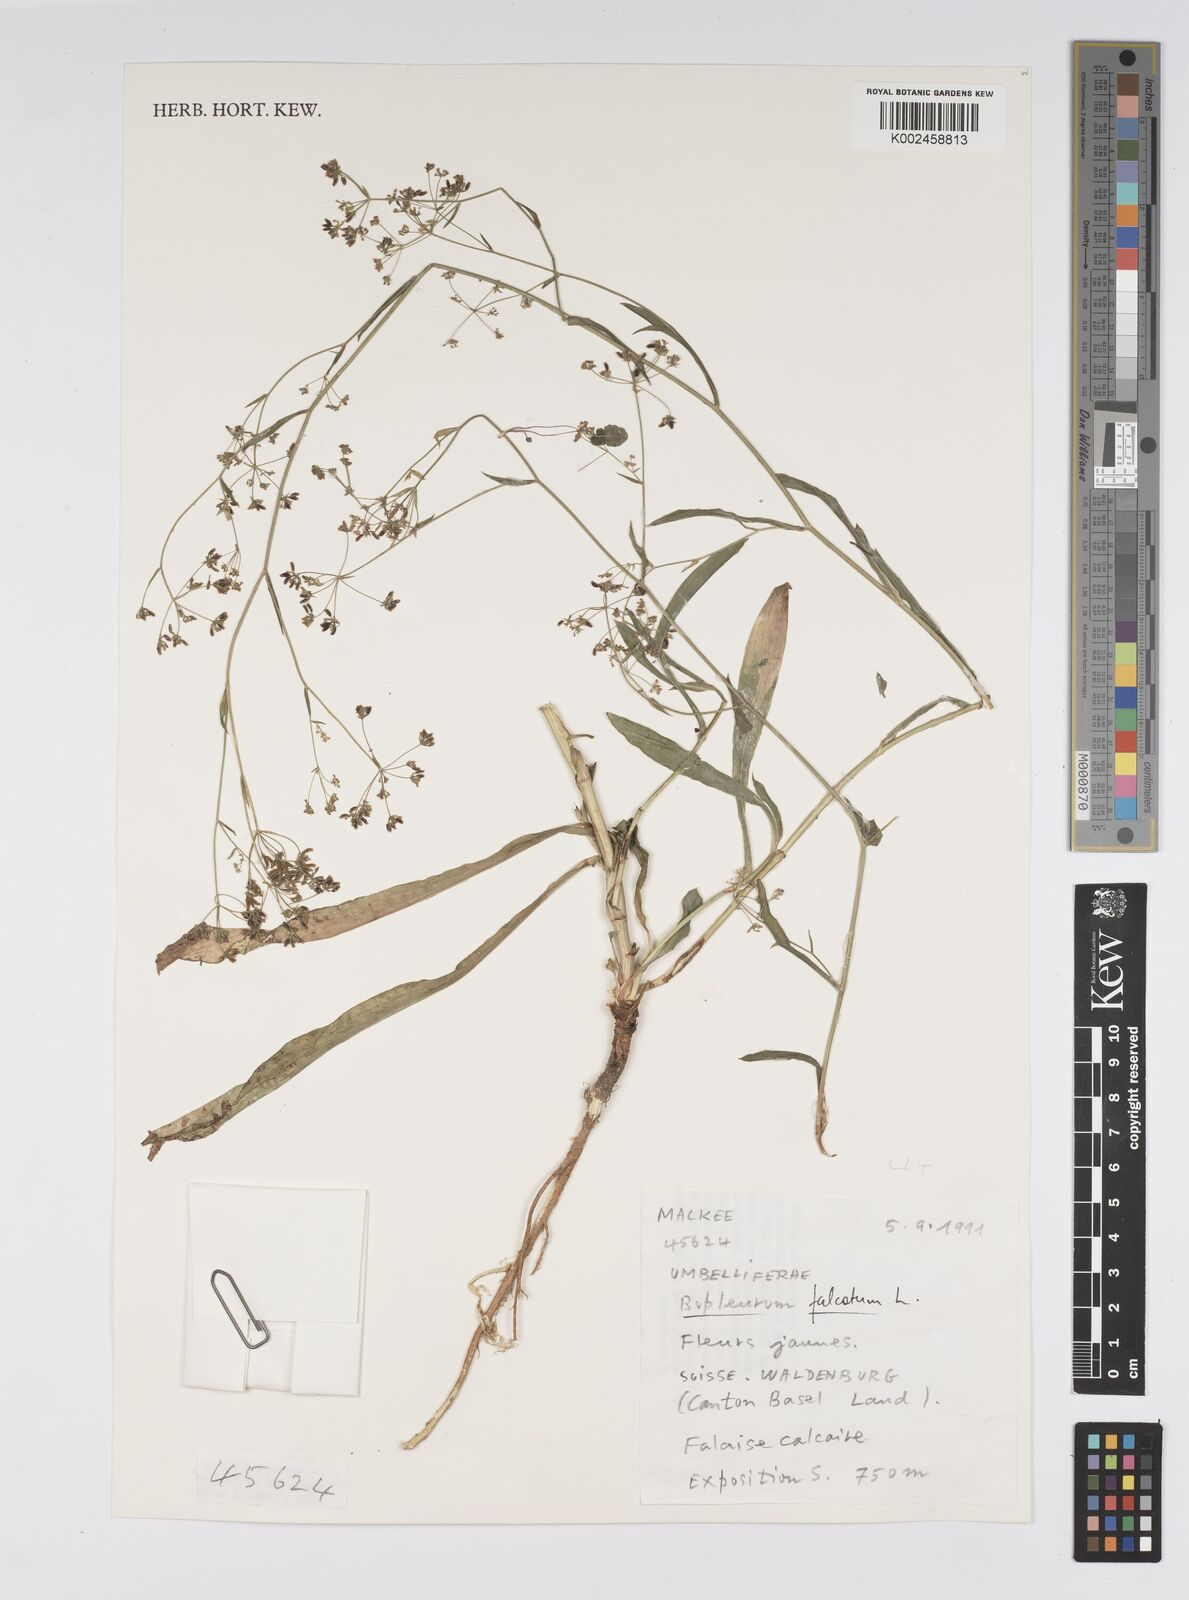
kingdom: Plantae
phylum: Tracheophyta
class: Magnoliopsida
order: Apiales
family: Apiaceae
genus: Bupleurum
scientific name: Bupleurum falcatum
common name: Sickle-leaved hare's-ear
